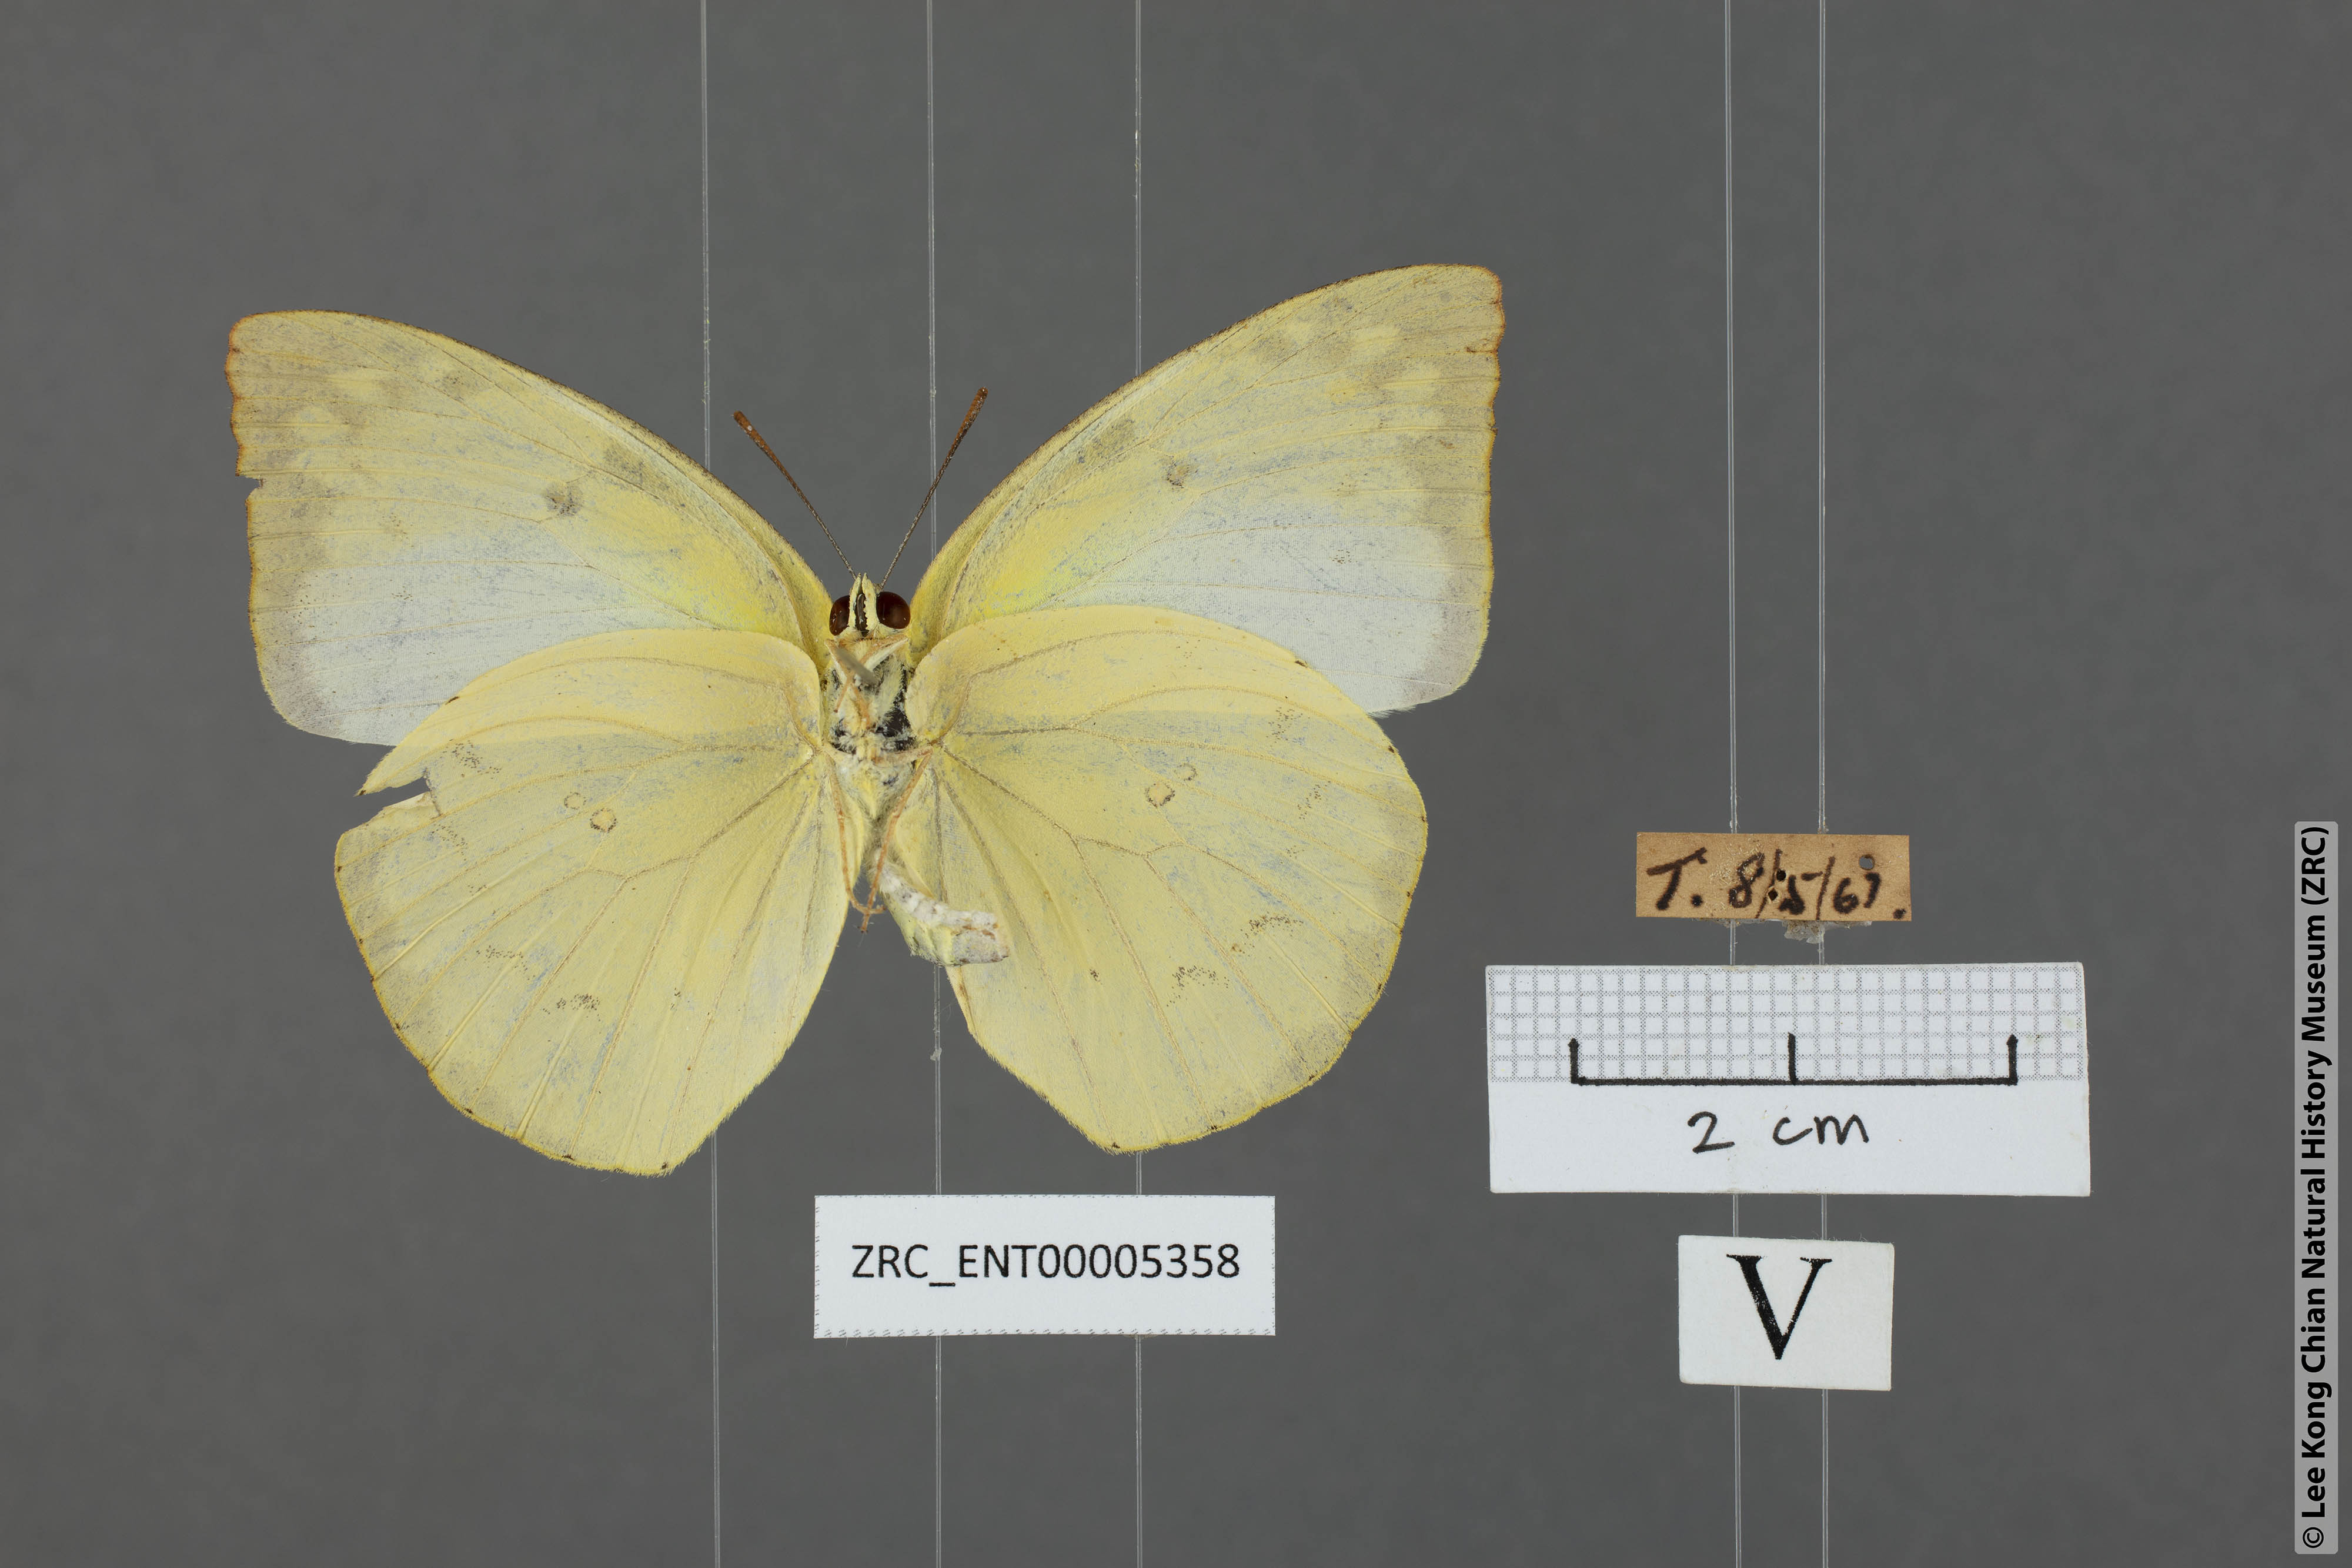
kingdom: Animalia
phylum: Arthropoda
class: Insecta
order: Lepidoptera
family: Pieridae
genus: Catopsilia
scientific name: Catopsilia pomona
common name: Common emigrant
